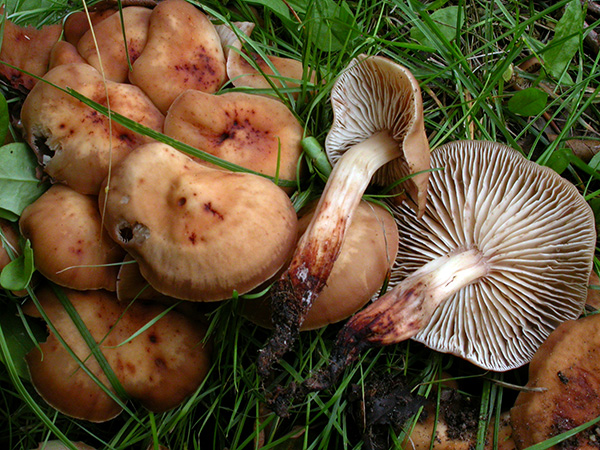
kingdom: Fungi
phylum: Basidiomycota
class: Agaricomycetes
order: Agaricales
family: Omphalotaceae
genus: Gymnopus
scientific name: Gymnopus fusipes
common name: tenstokket fladhat
